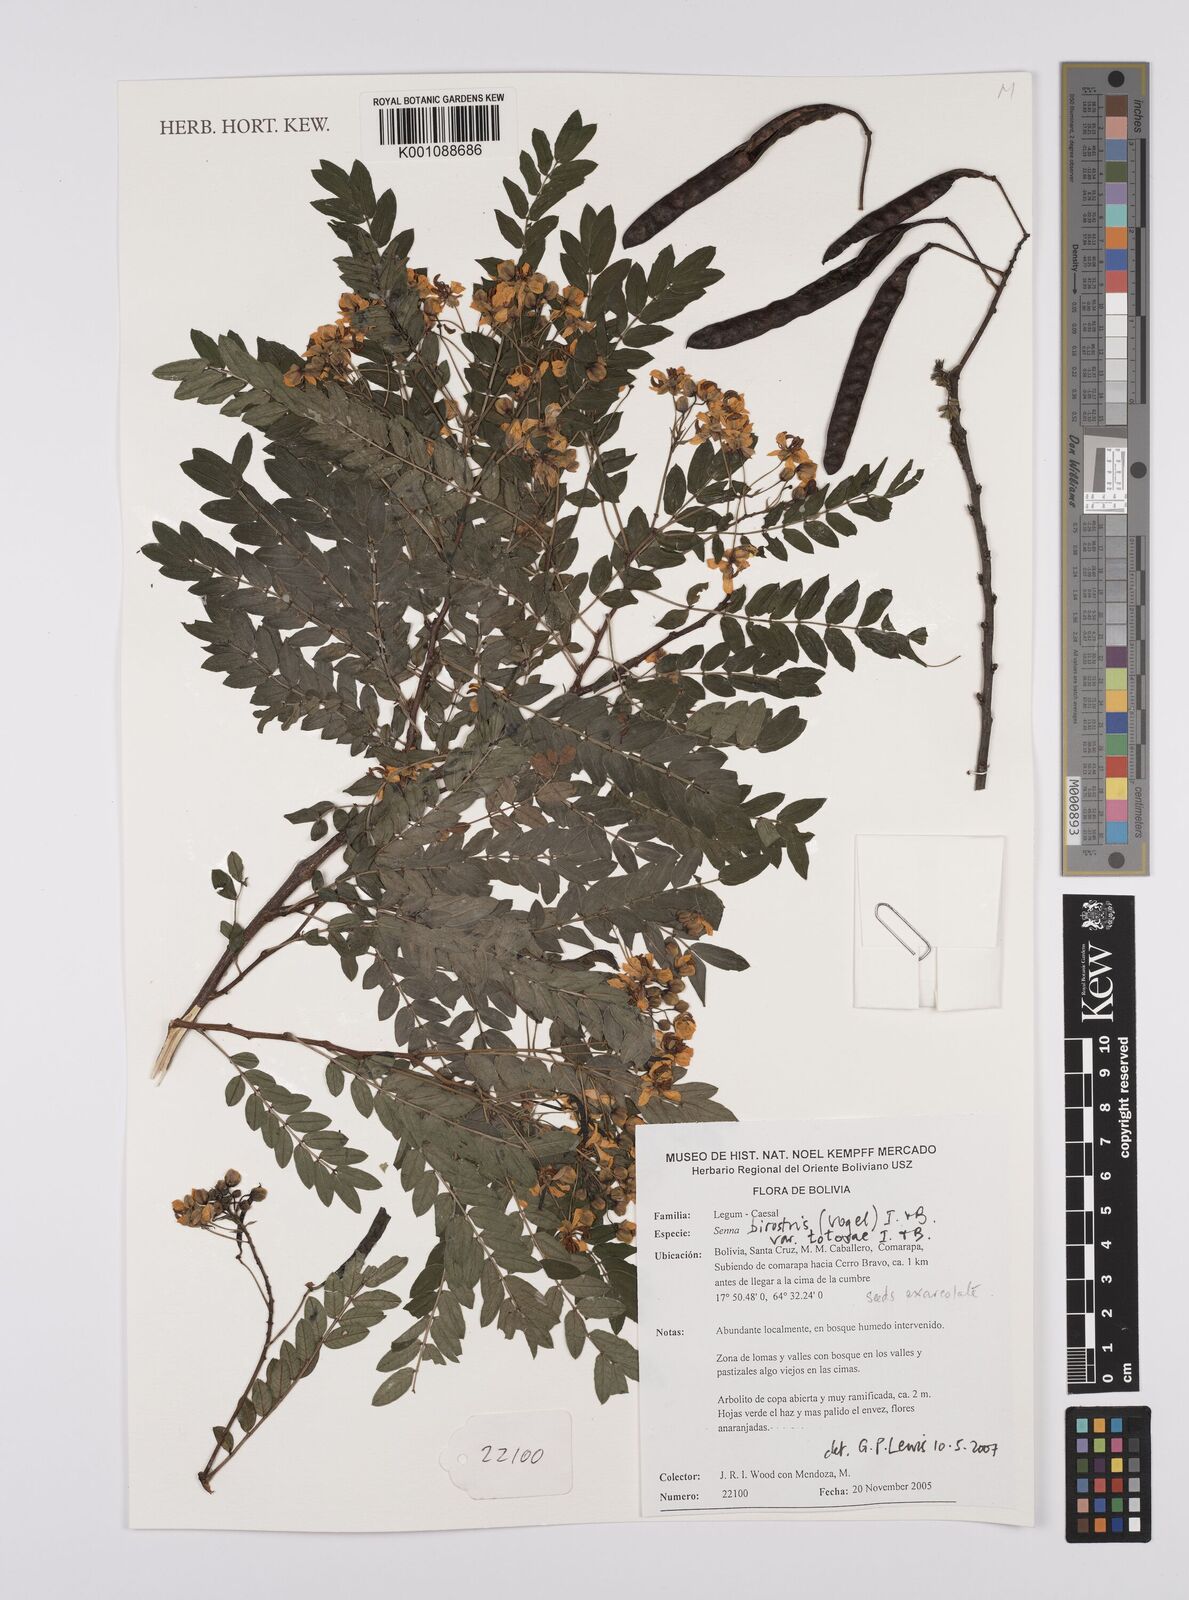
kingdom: Plantae
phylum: Tracheophyta
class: Magnoliopsida
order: Fabales
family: Fabaceae
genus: Senna
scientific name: Senna birostris
